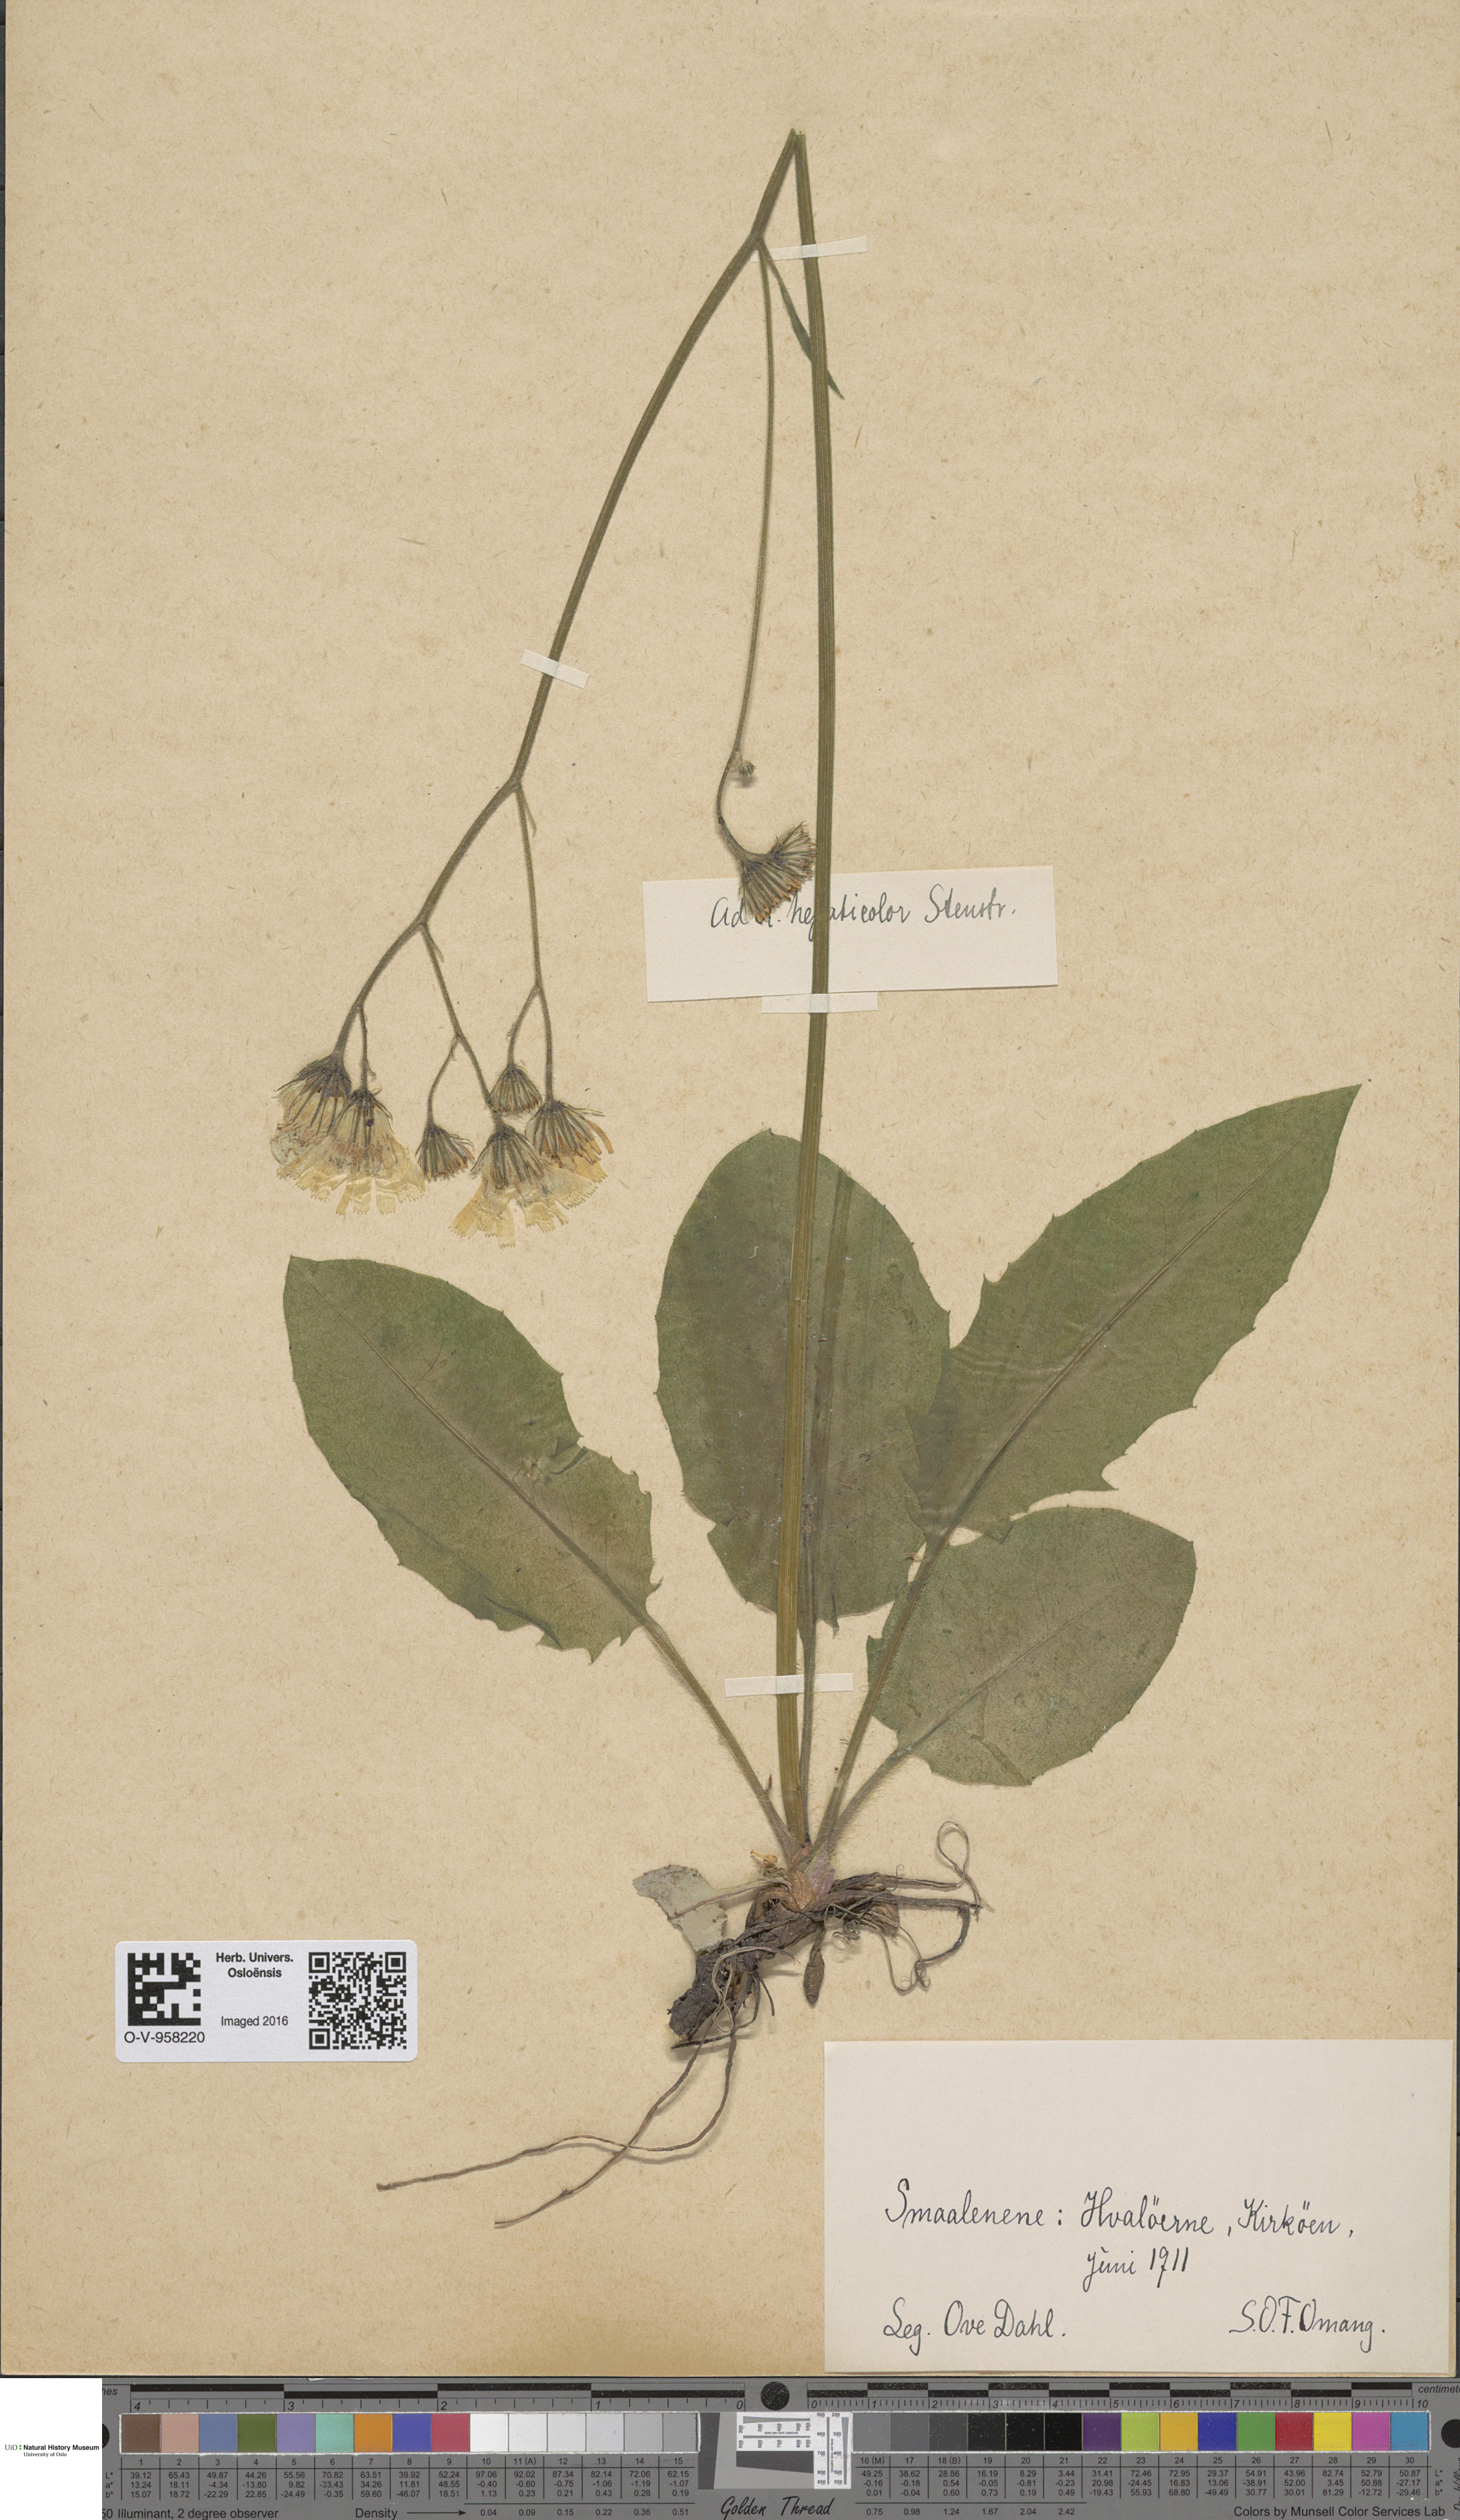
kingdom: Plantae
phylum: Tracheophyta
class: Magnoliopsida
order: Asterales
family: Asteraceae
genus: Hieracium
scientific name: Hieracium hepaticolor
